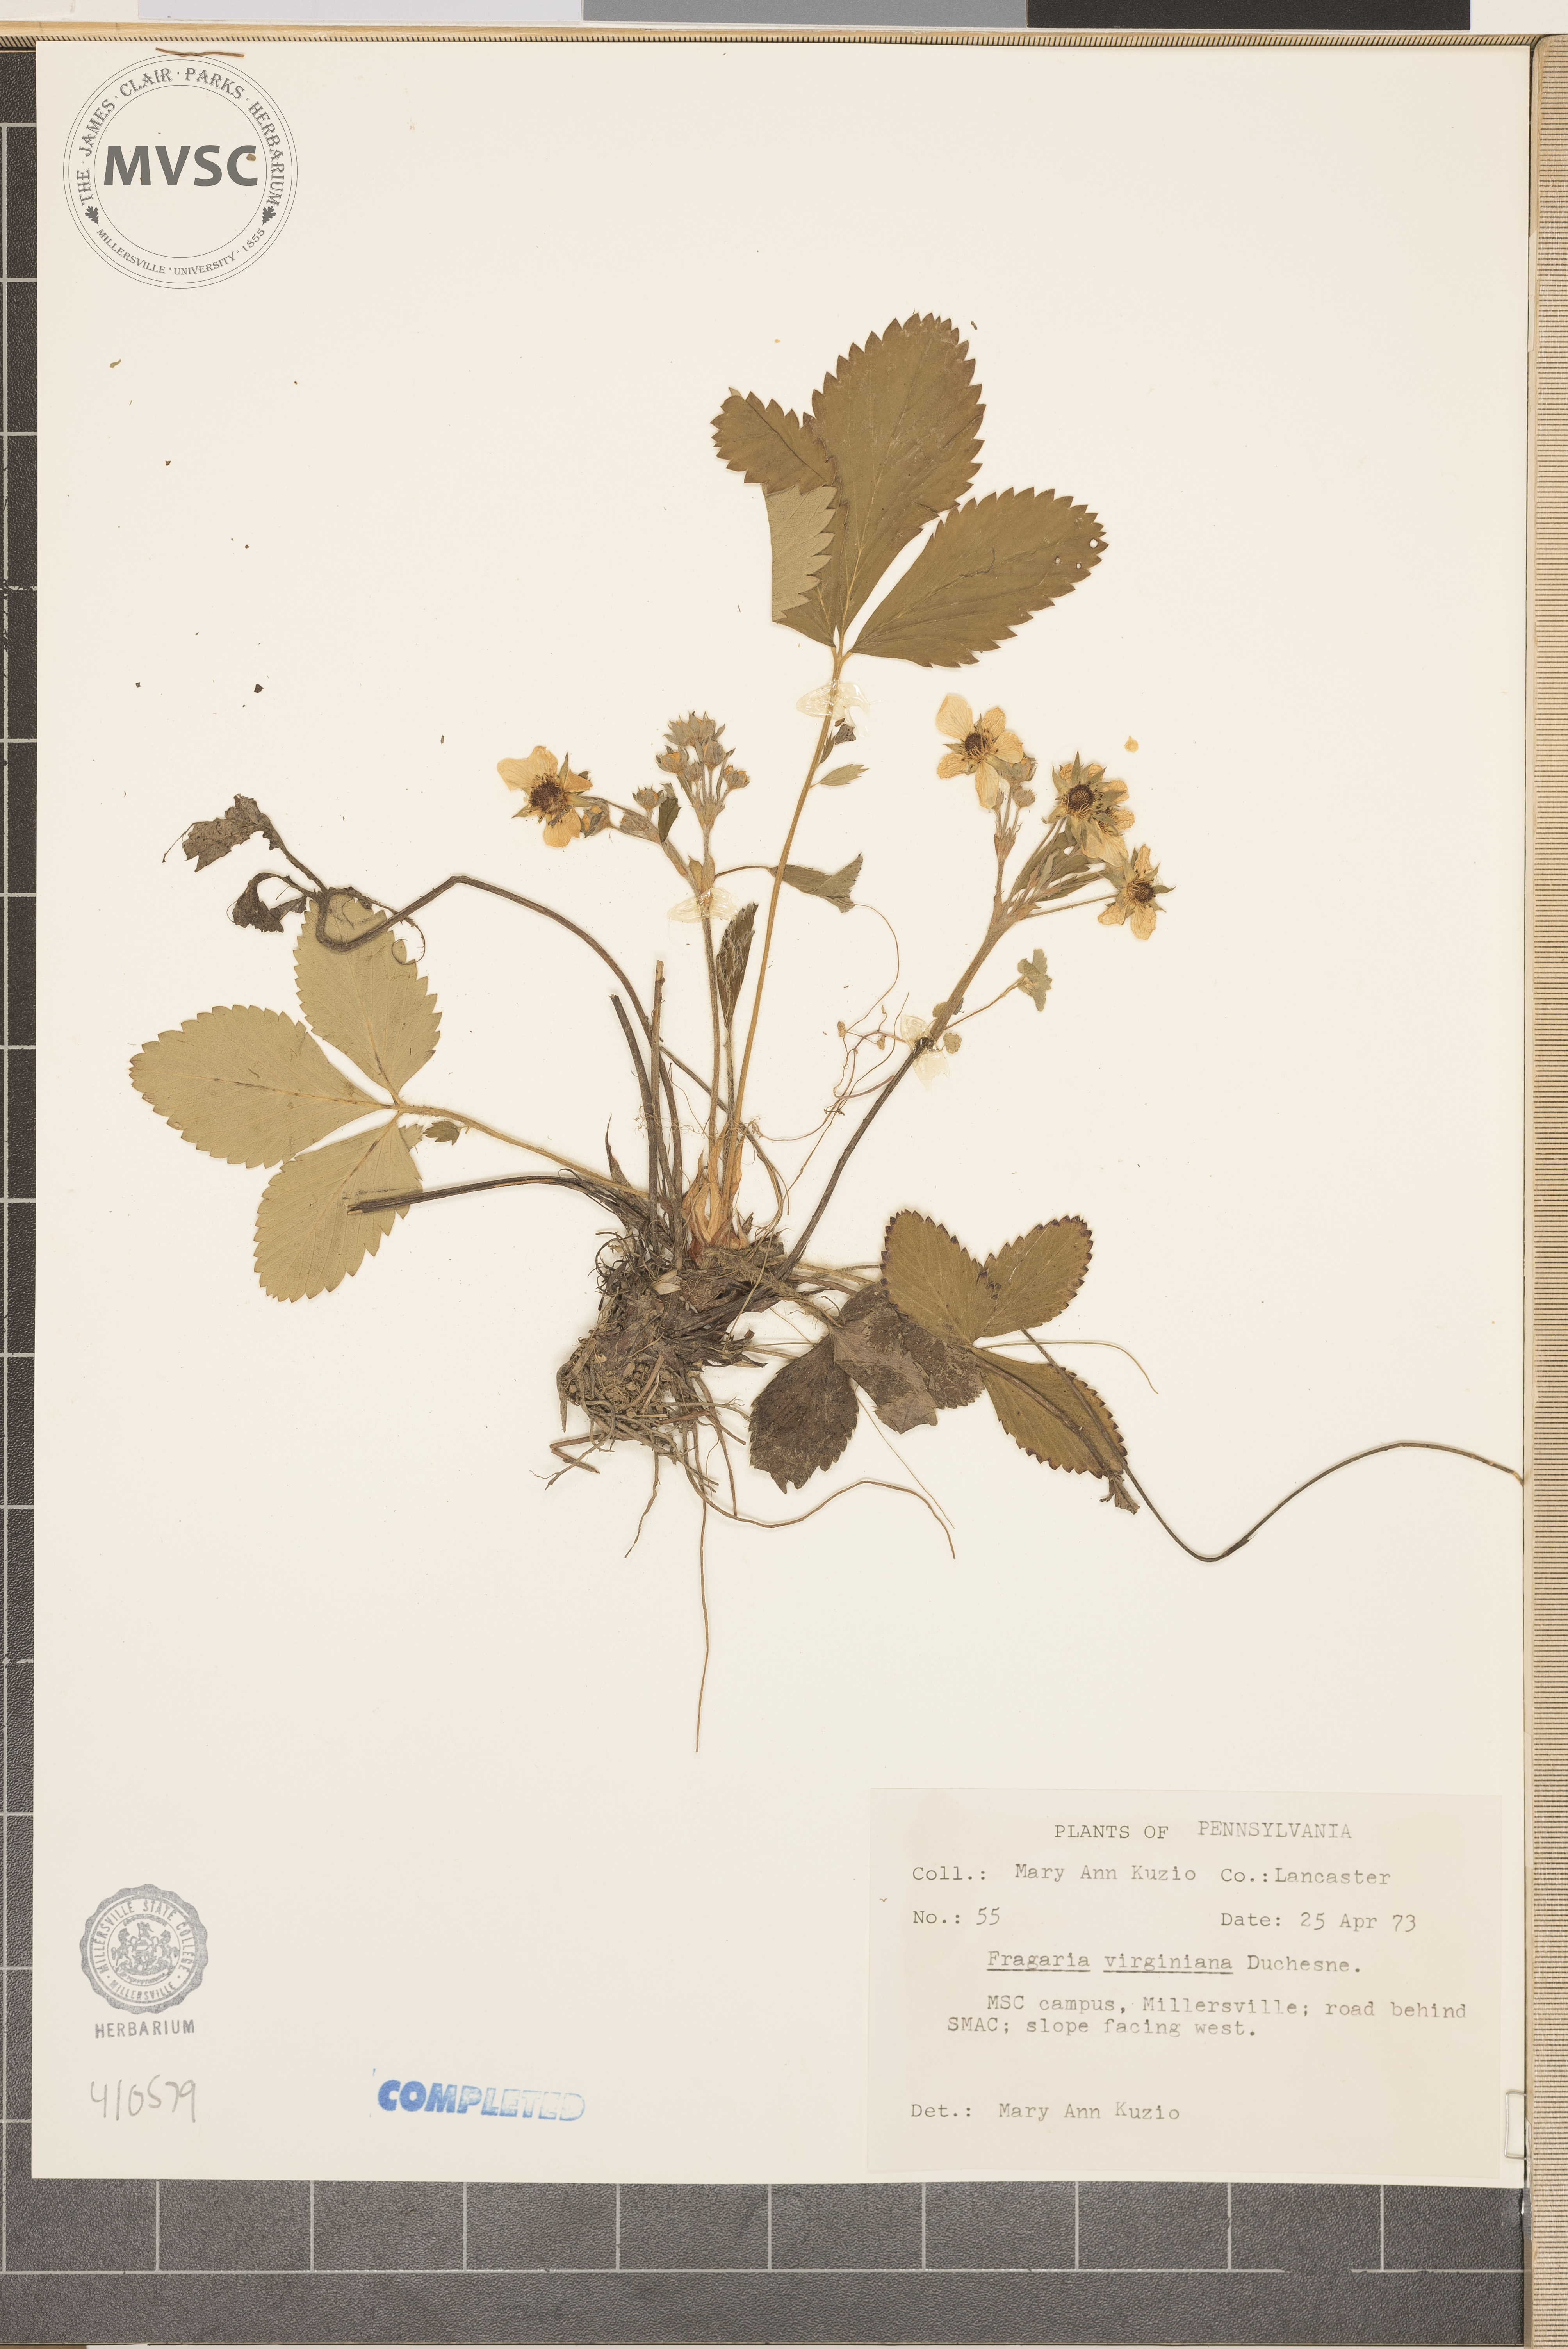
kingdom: Plantae
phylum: Tracheophyta
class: Magnoliopsida
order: Rosales
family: Rosaceae
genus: Fragaria
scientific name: Fragaria virginiana
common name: Thickleaved wild strawberry
